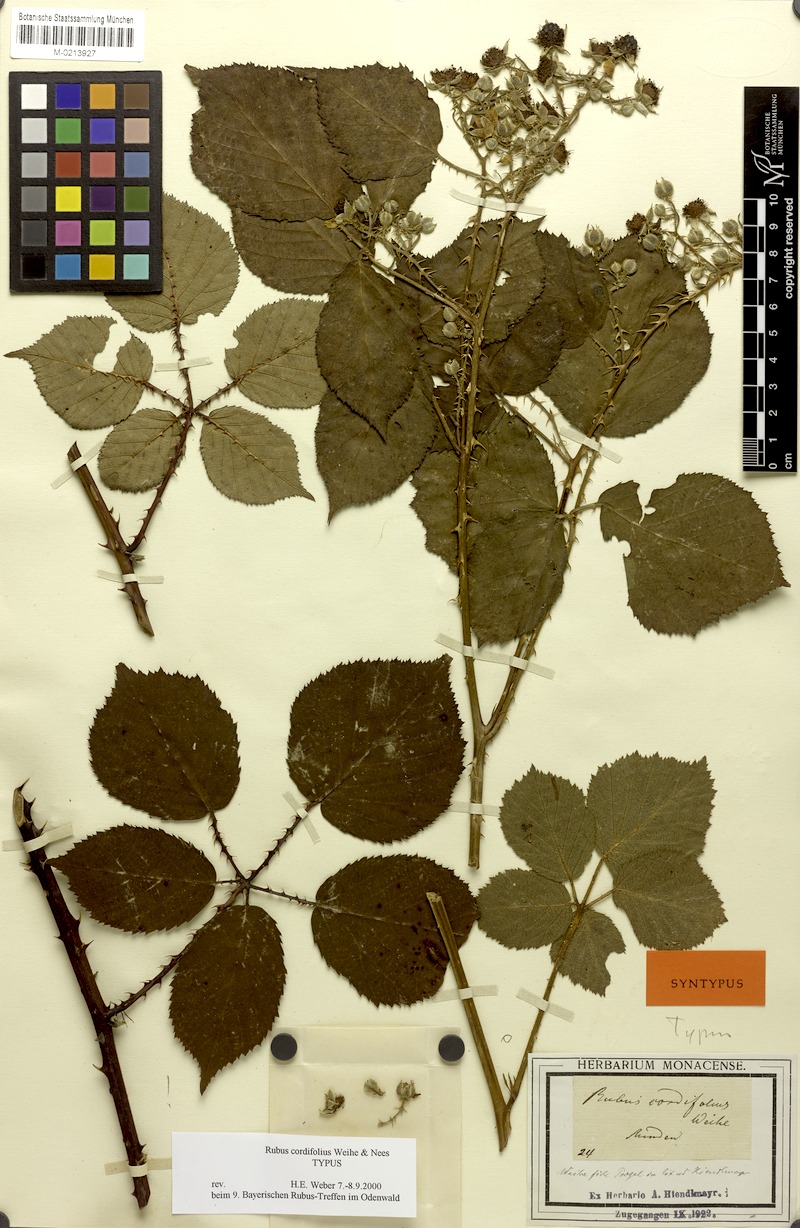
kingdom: Plantae
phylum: Tracheophyta
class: Magnoliopsida
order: Rosales
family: Rosaceae
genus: Rubus
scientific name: Rubus cordifolius
